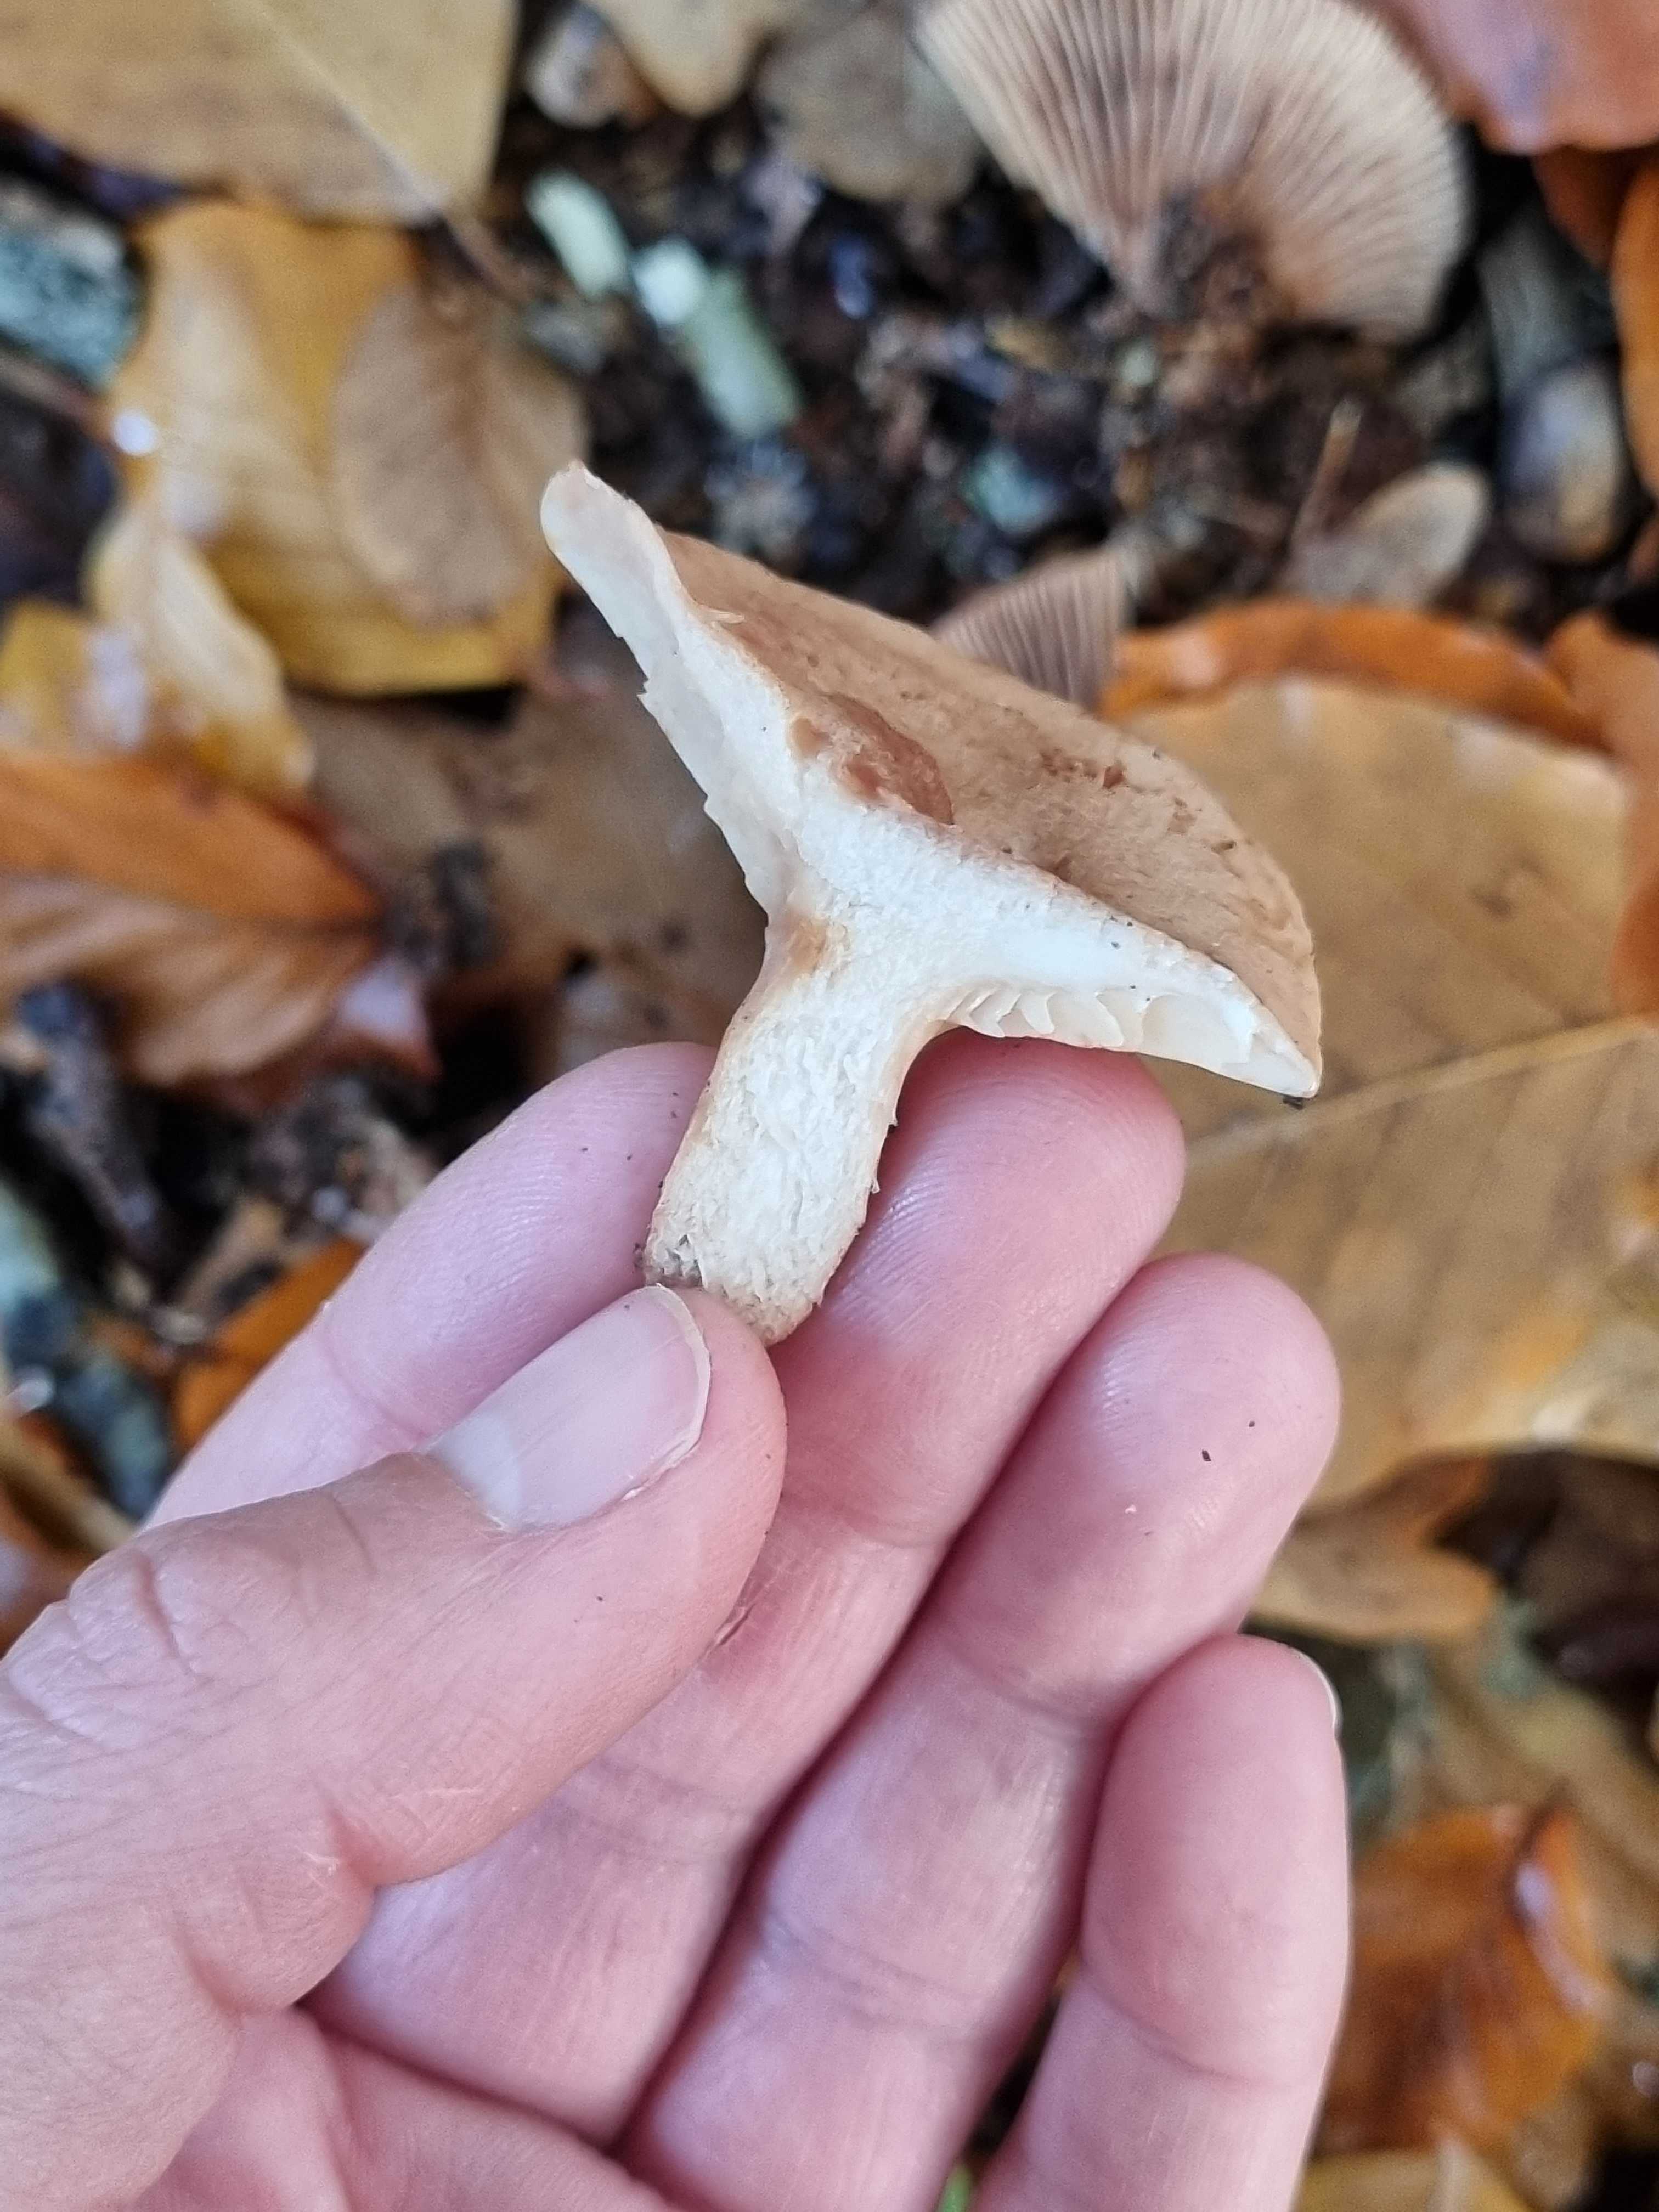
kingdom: Fungi
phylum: Basidiomycota
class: Agaricomycetes
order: Russulales
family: Russulaceae
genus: Lactarius
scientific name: Lactarius quietus
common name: ege-mælkehat
